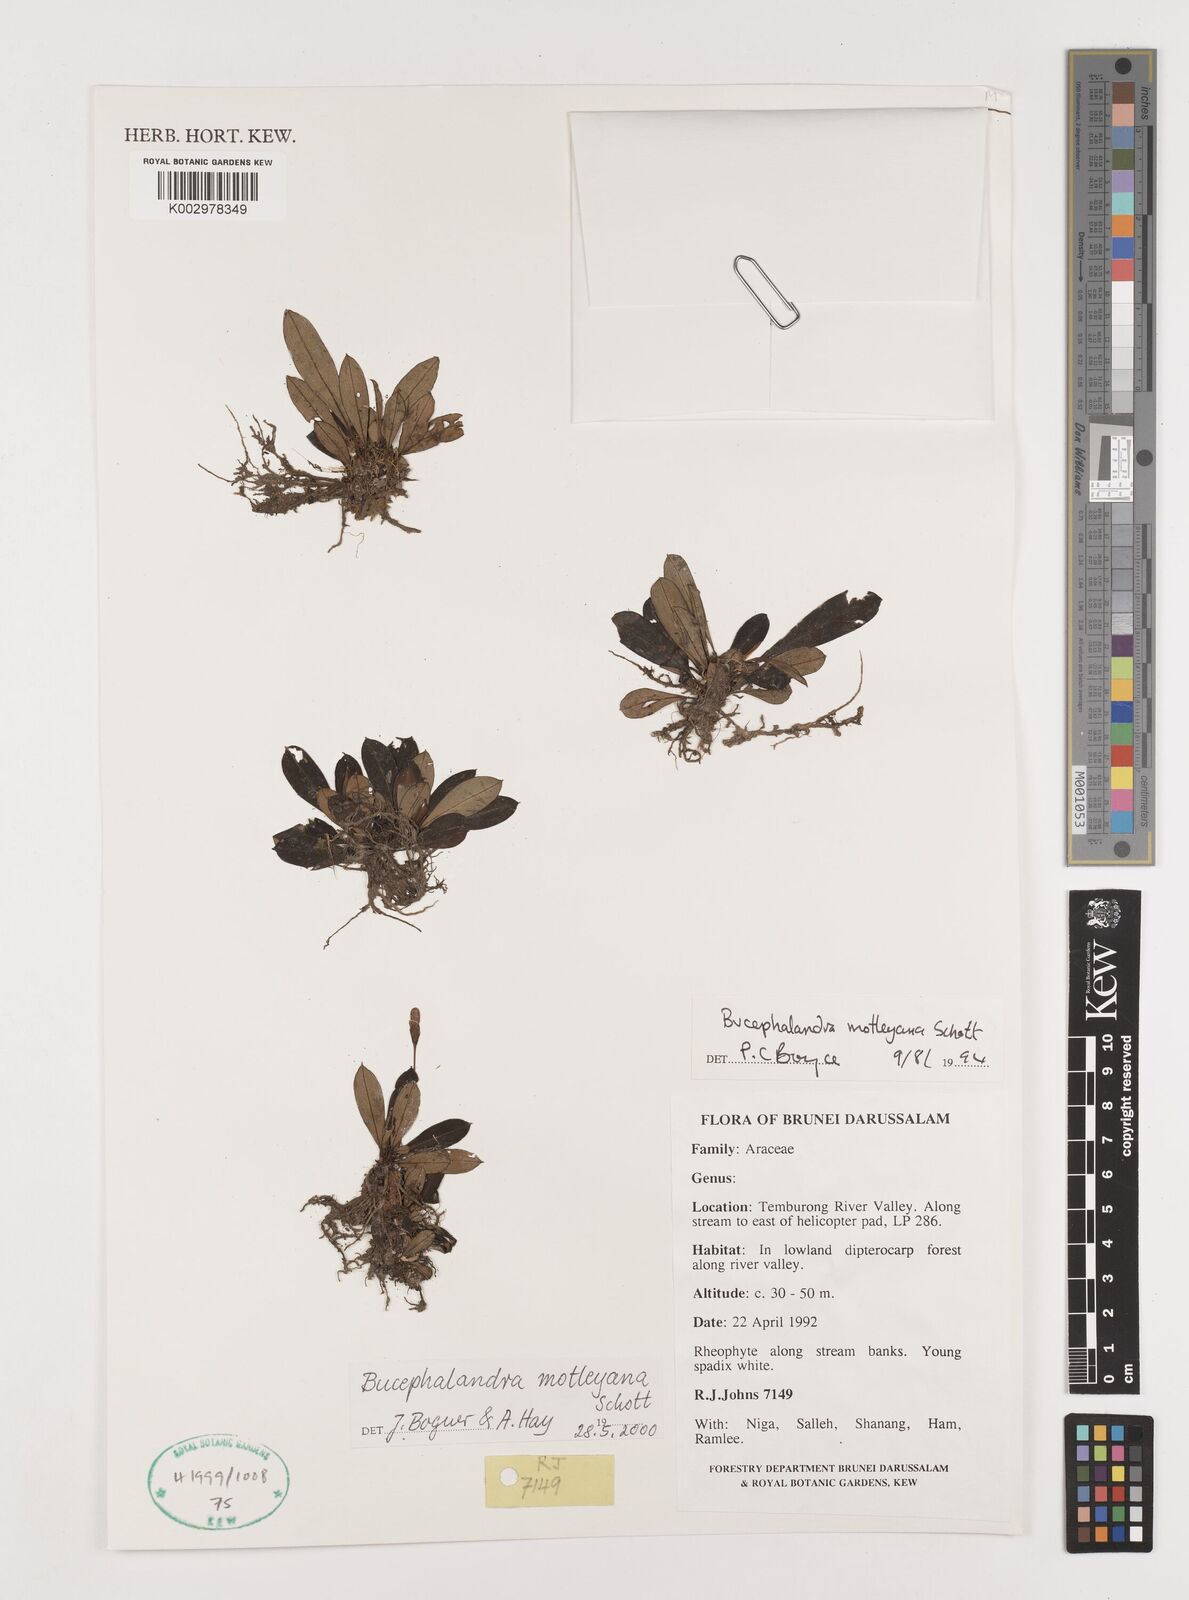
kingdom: Plantae
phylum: Tracheophyta
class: Liliopsida
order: Alismatales
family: Araceae
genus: Bucephalandra
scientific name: Bucephalandra motleyana
